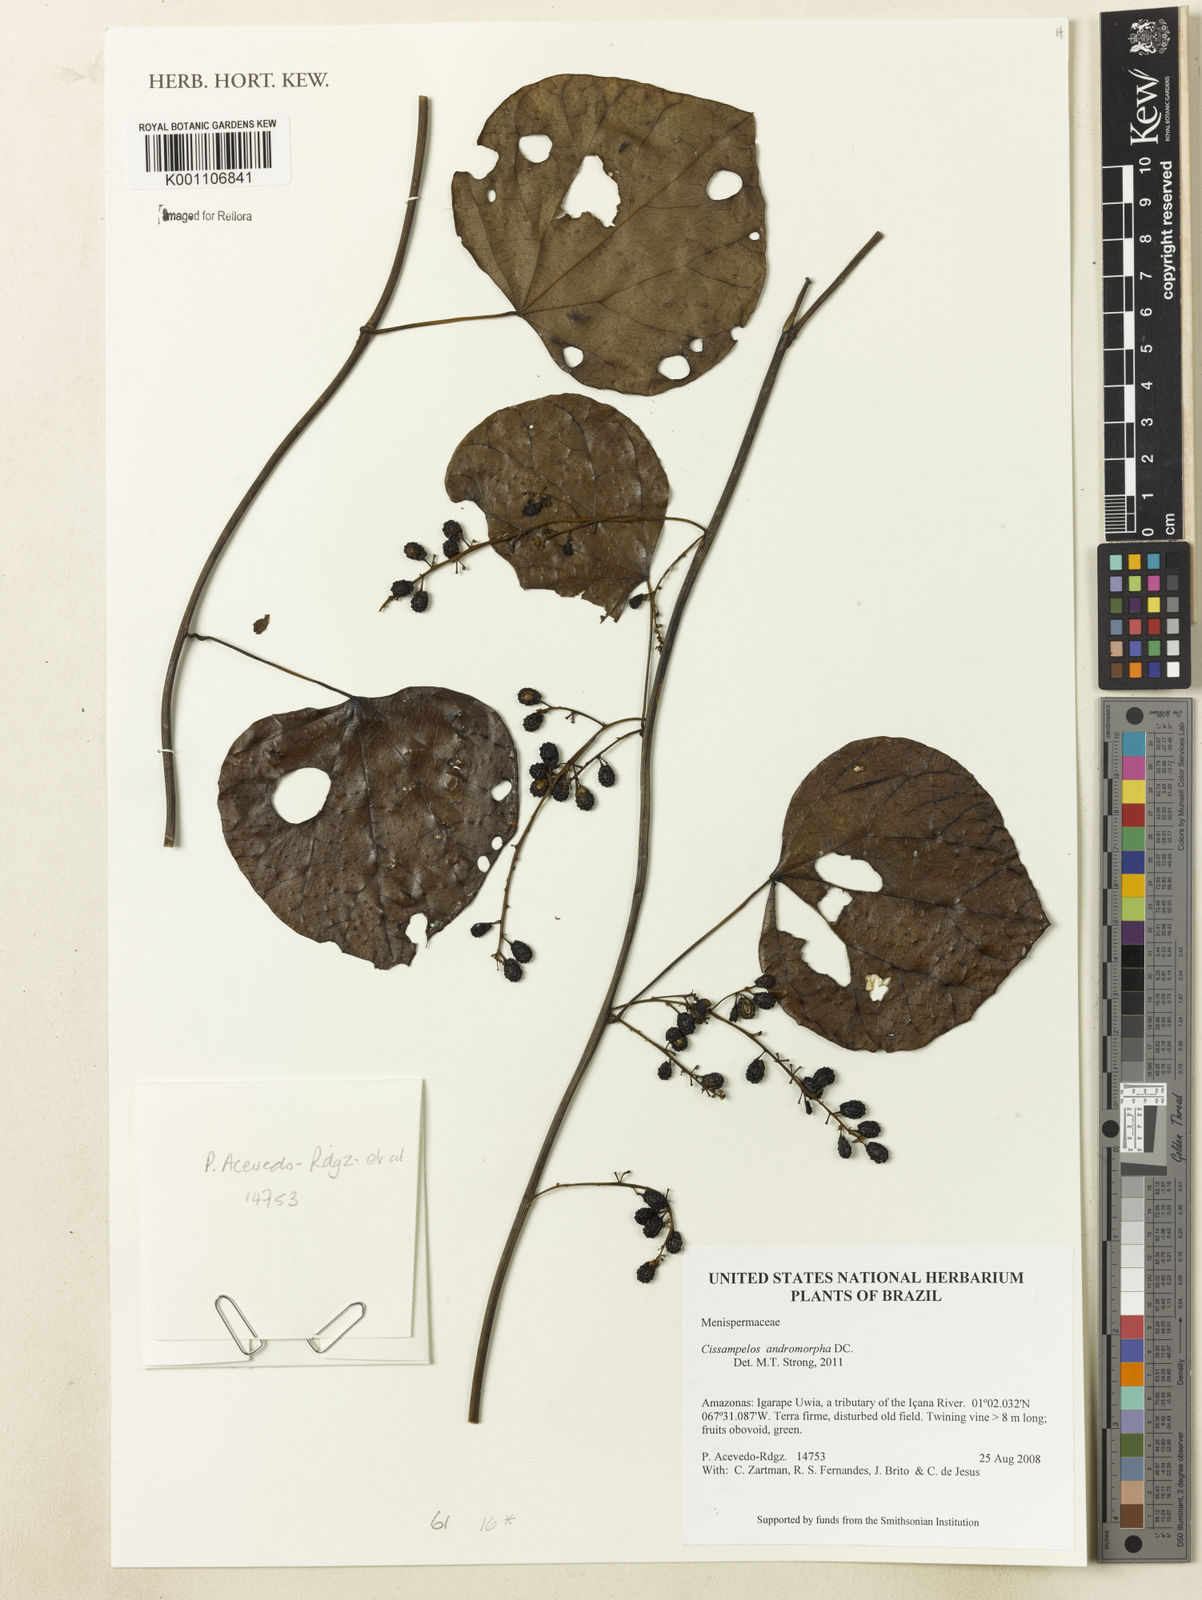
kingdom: Plantae
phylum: Tracheophyta
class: Magnoliopsida
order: Ranunculales
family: Menispermaceae
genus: Cissampelos
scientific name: Cissampelos andromorpha
